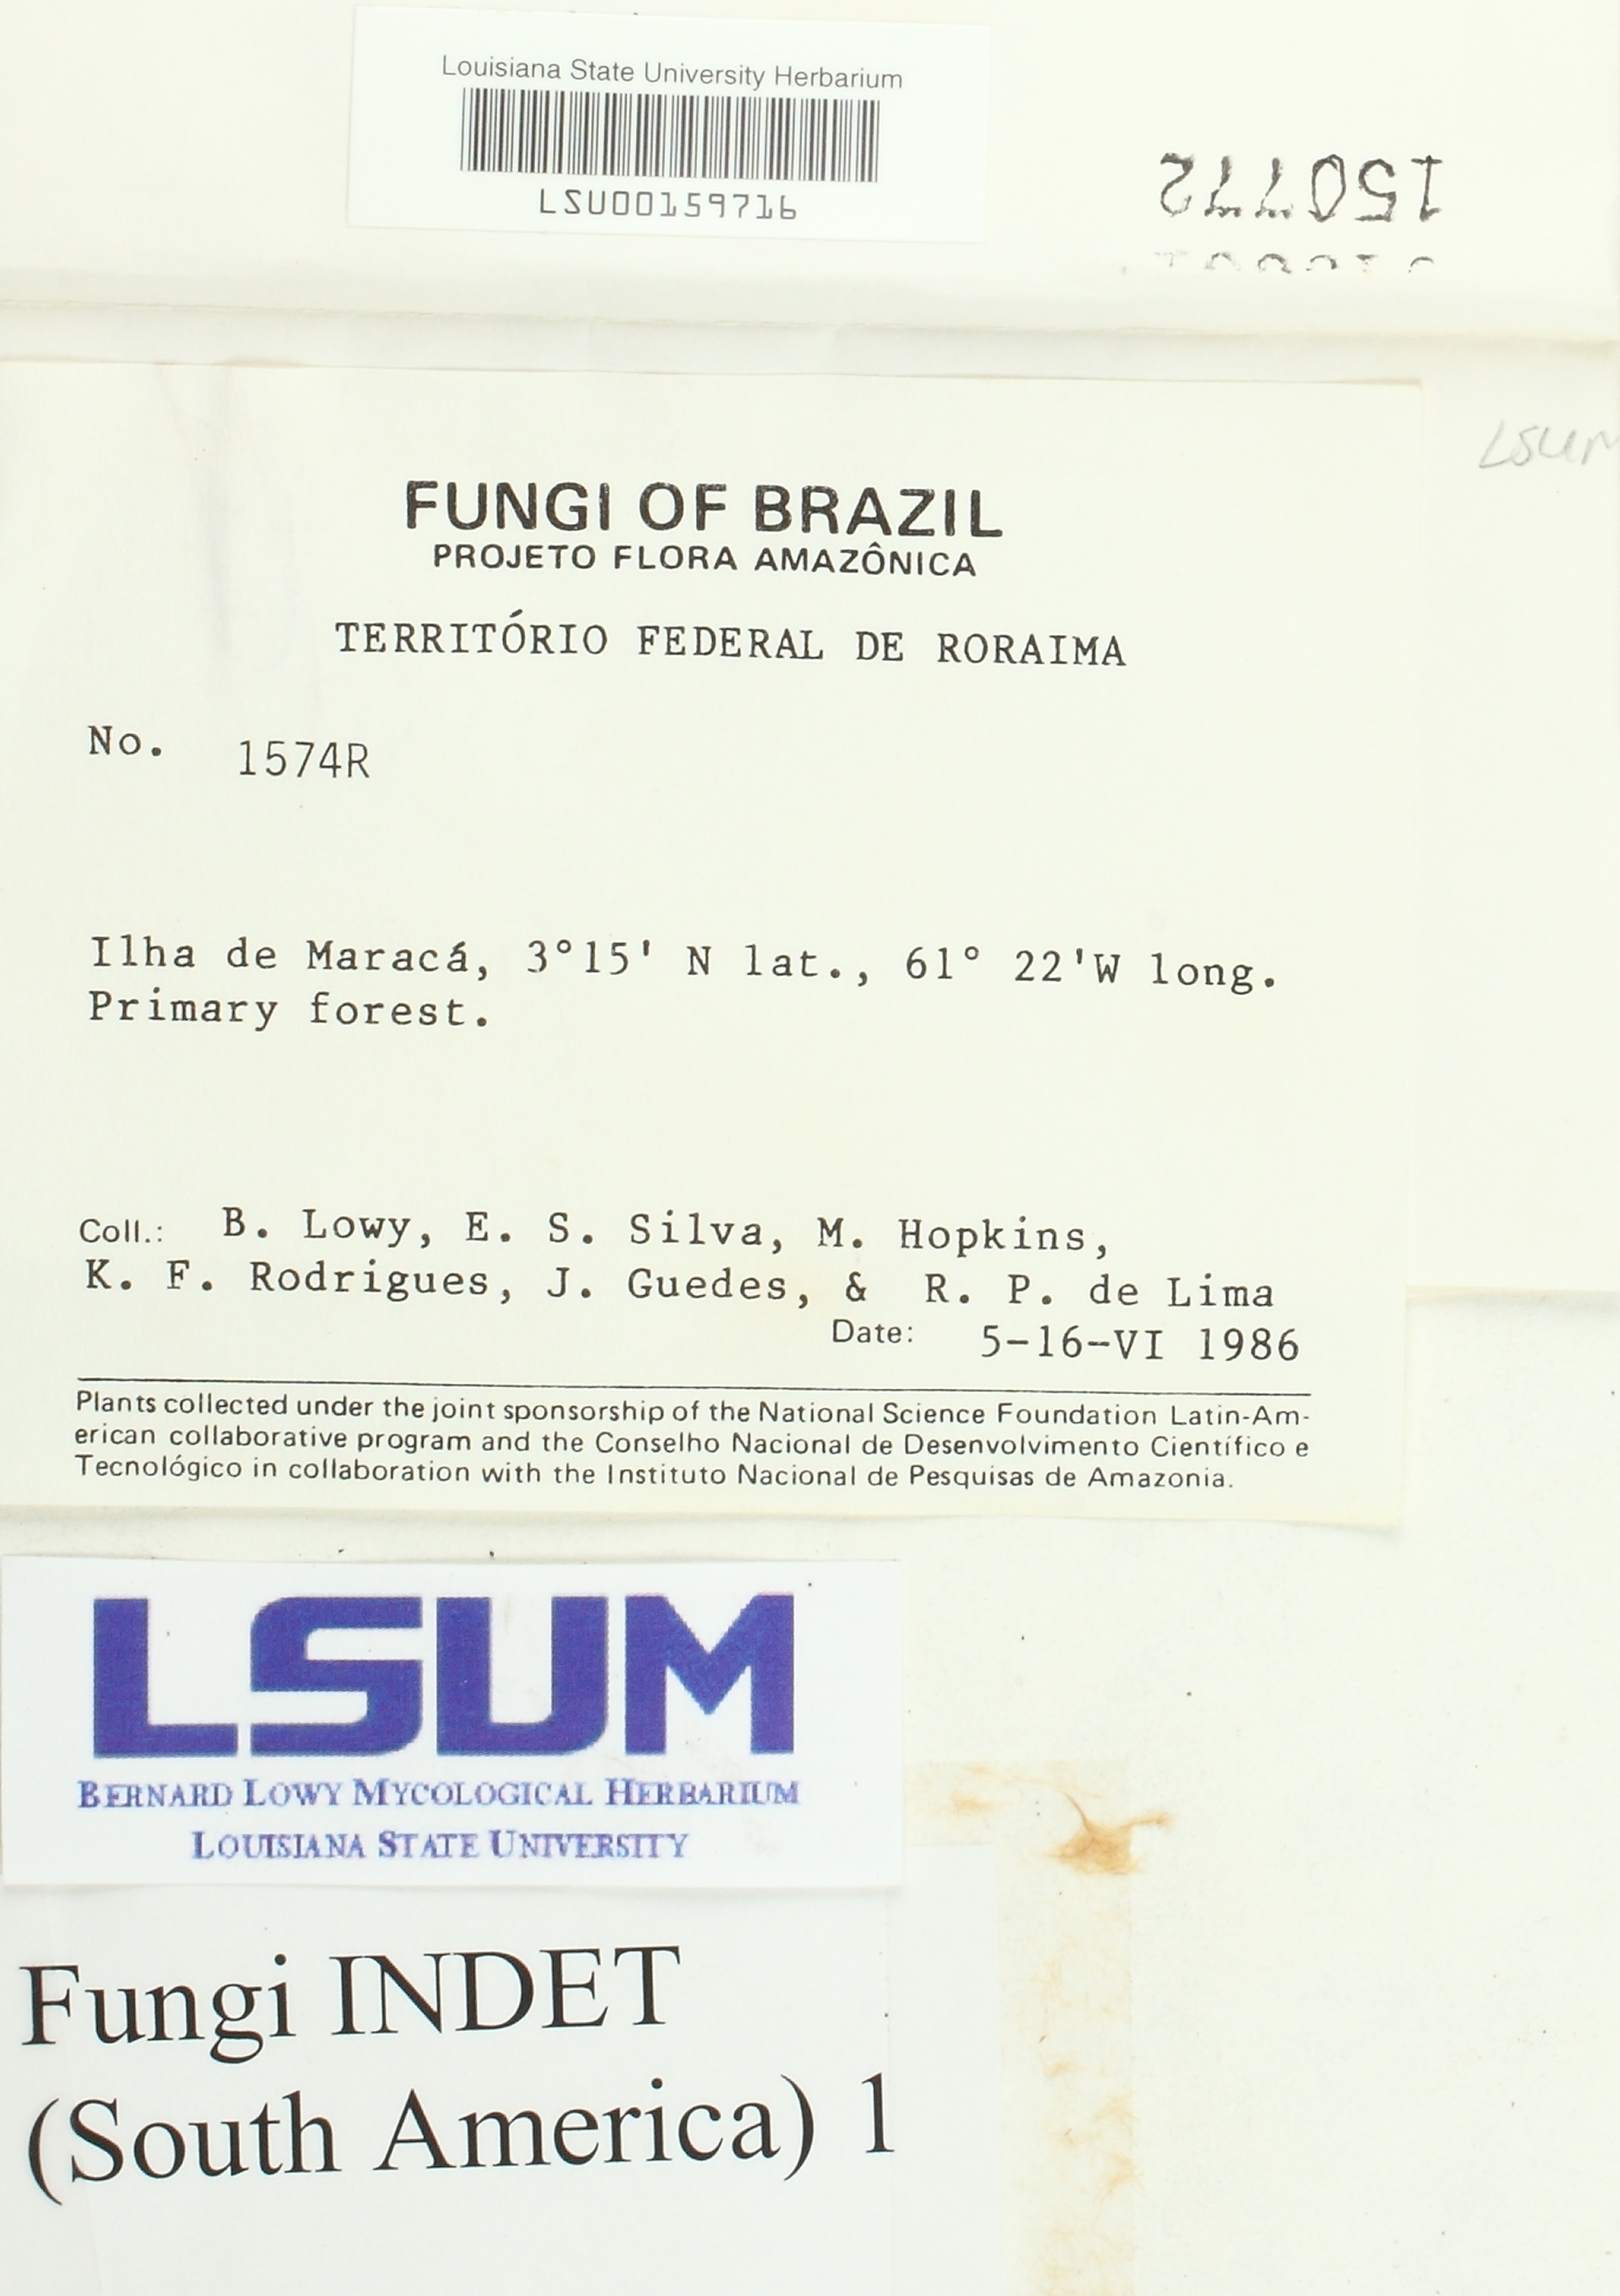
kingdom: Fungi
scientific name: Fungi
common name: Fungi
